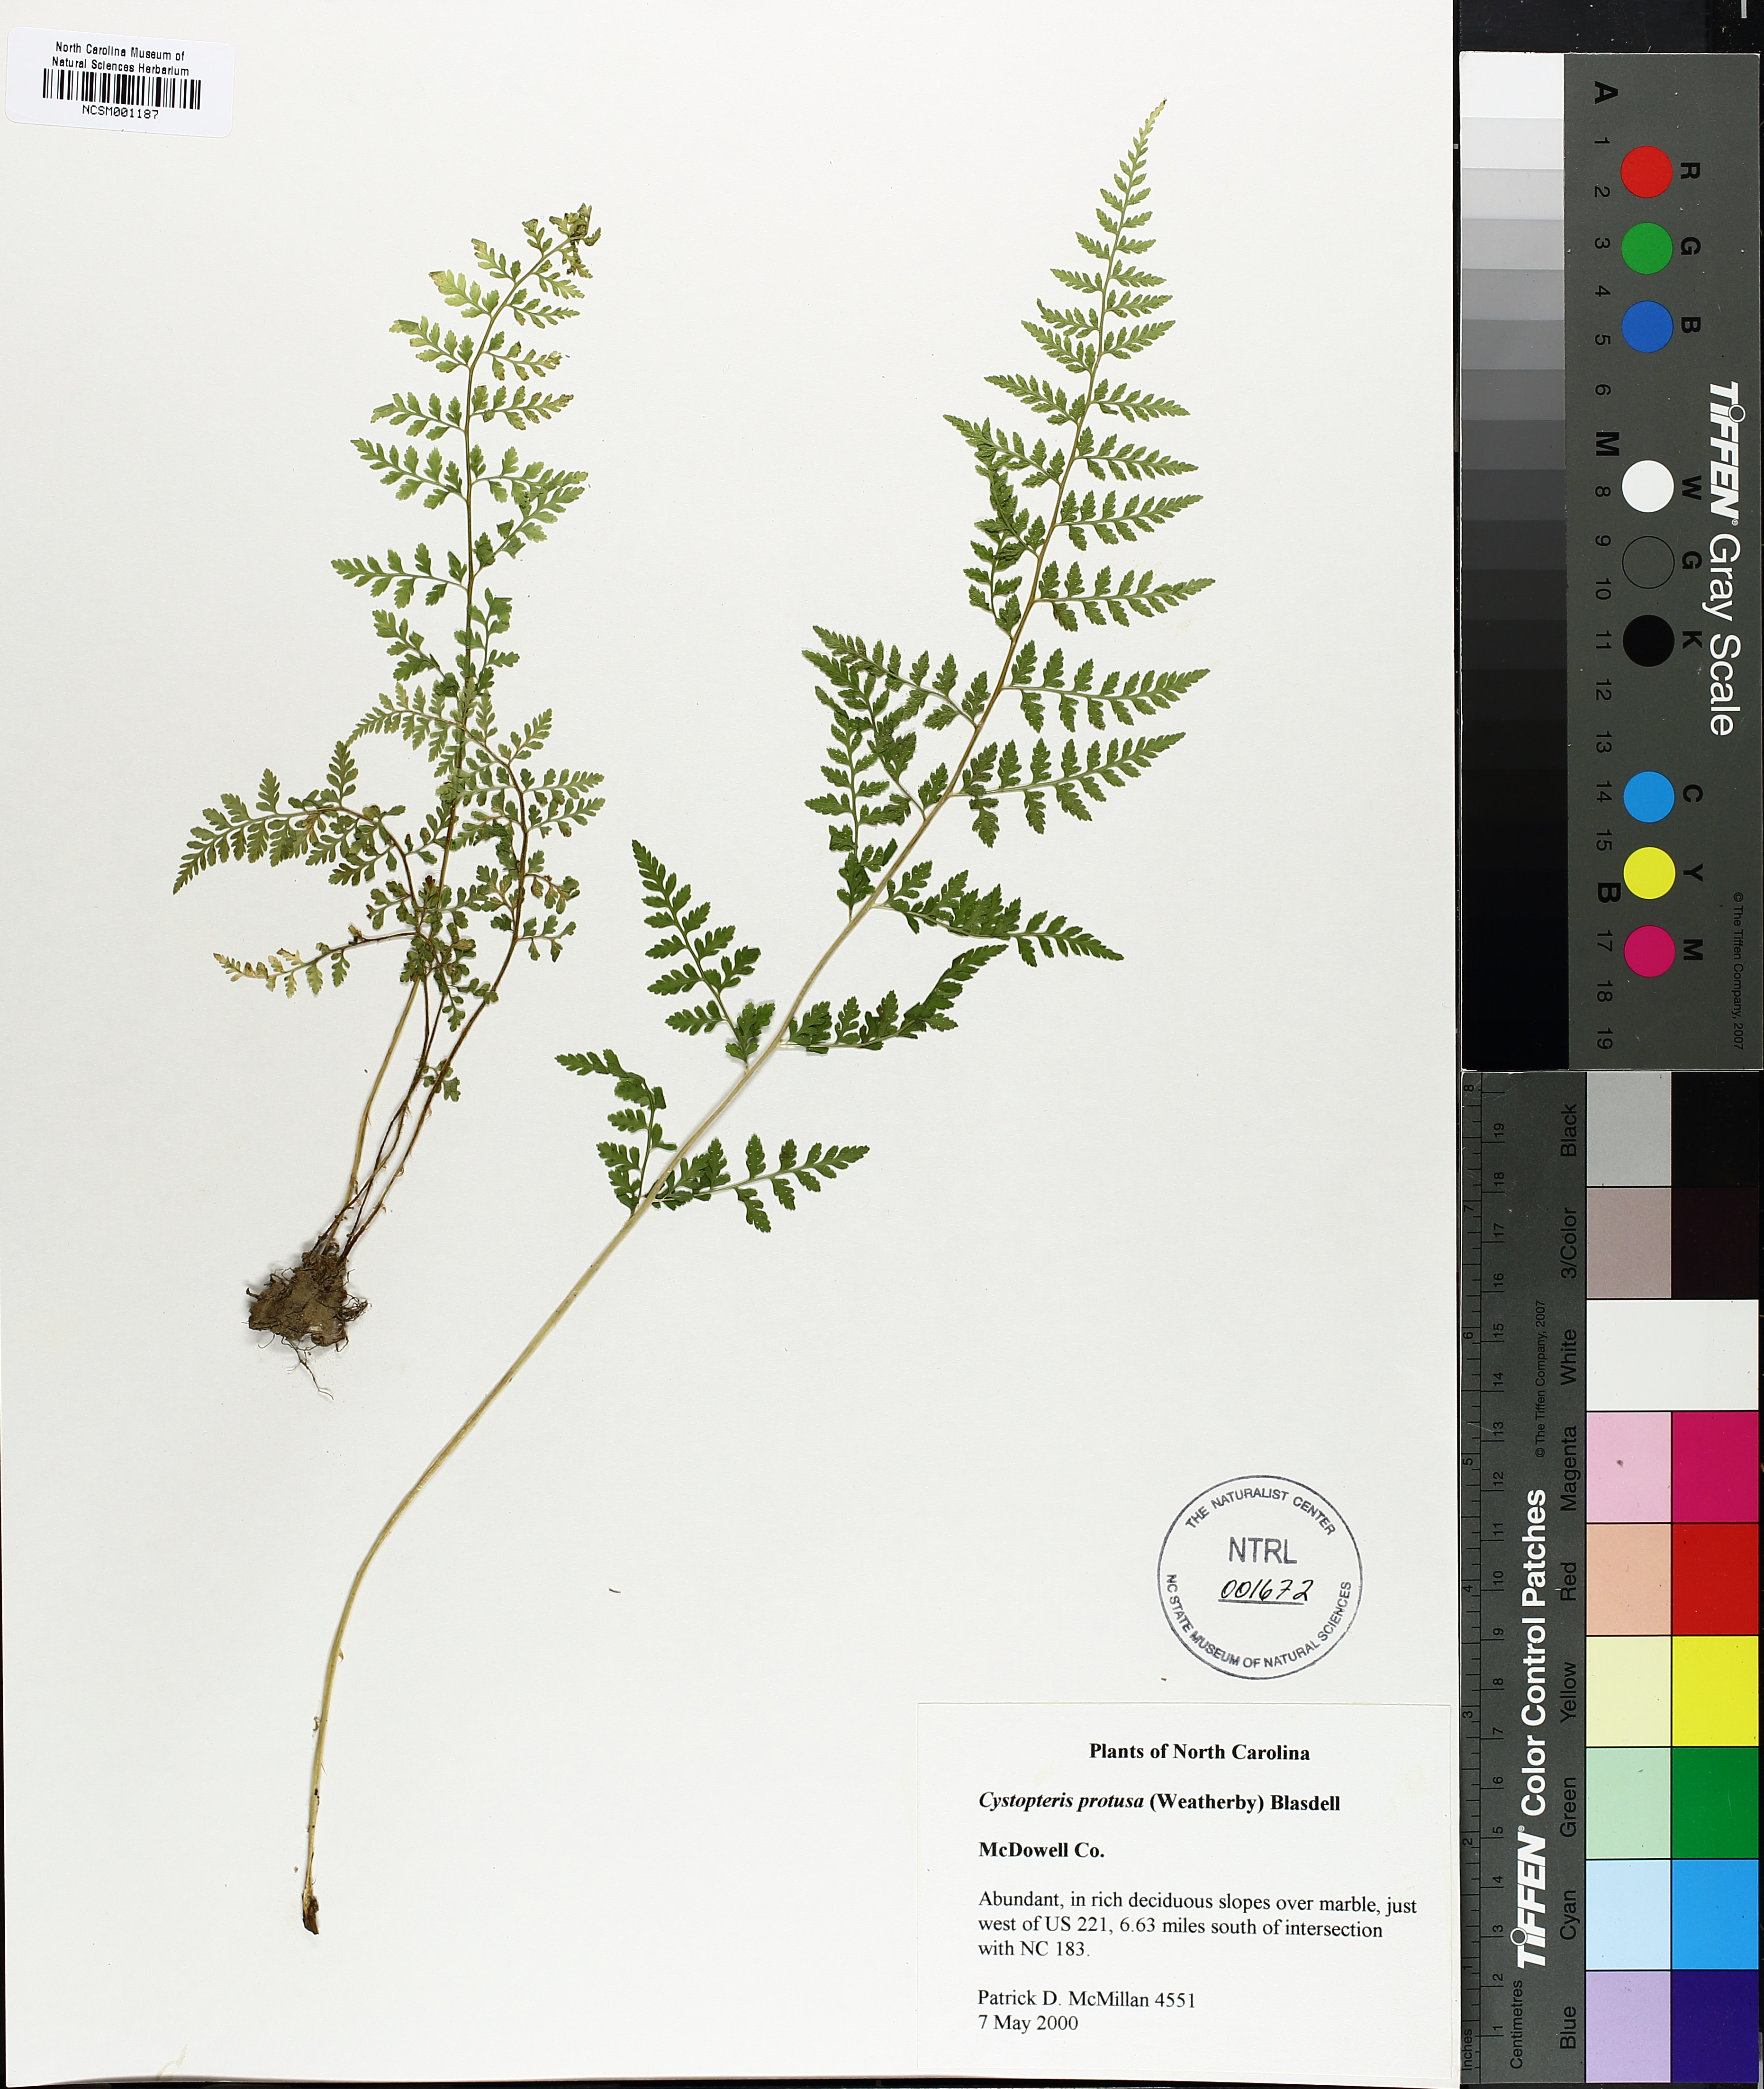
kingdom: Plantae
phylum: Tracheophyta
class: Polypodiopsida
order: Polypodiales
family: Cystopteridaceae
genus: Cystopteris
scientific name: Cystopteris protrusa
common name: Lowland brittle fern
